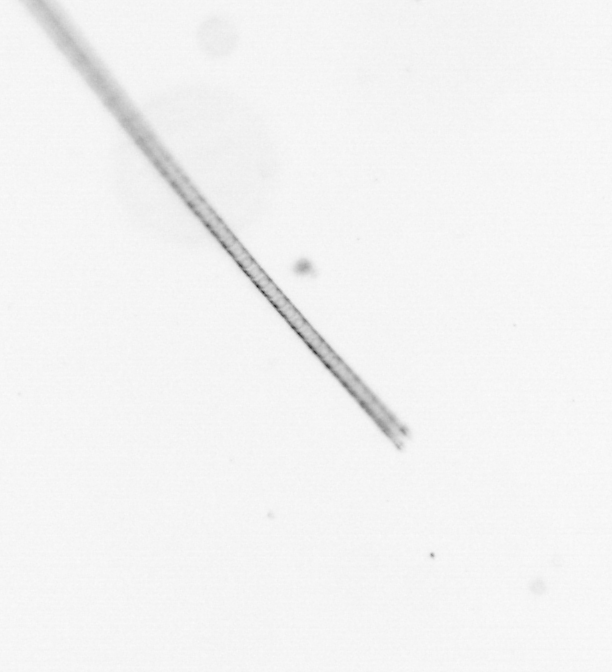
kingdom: Chromista
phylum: Ochrophyta
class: Bacillariophyceae
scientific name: Bacillariophyceae
